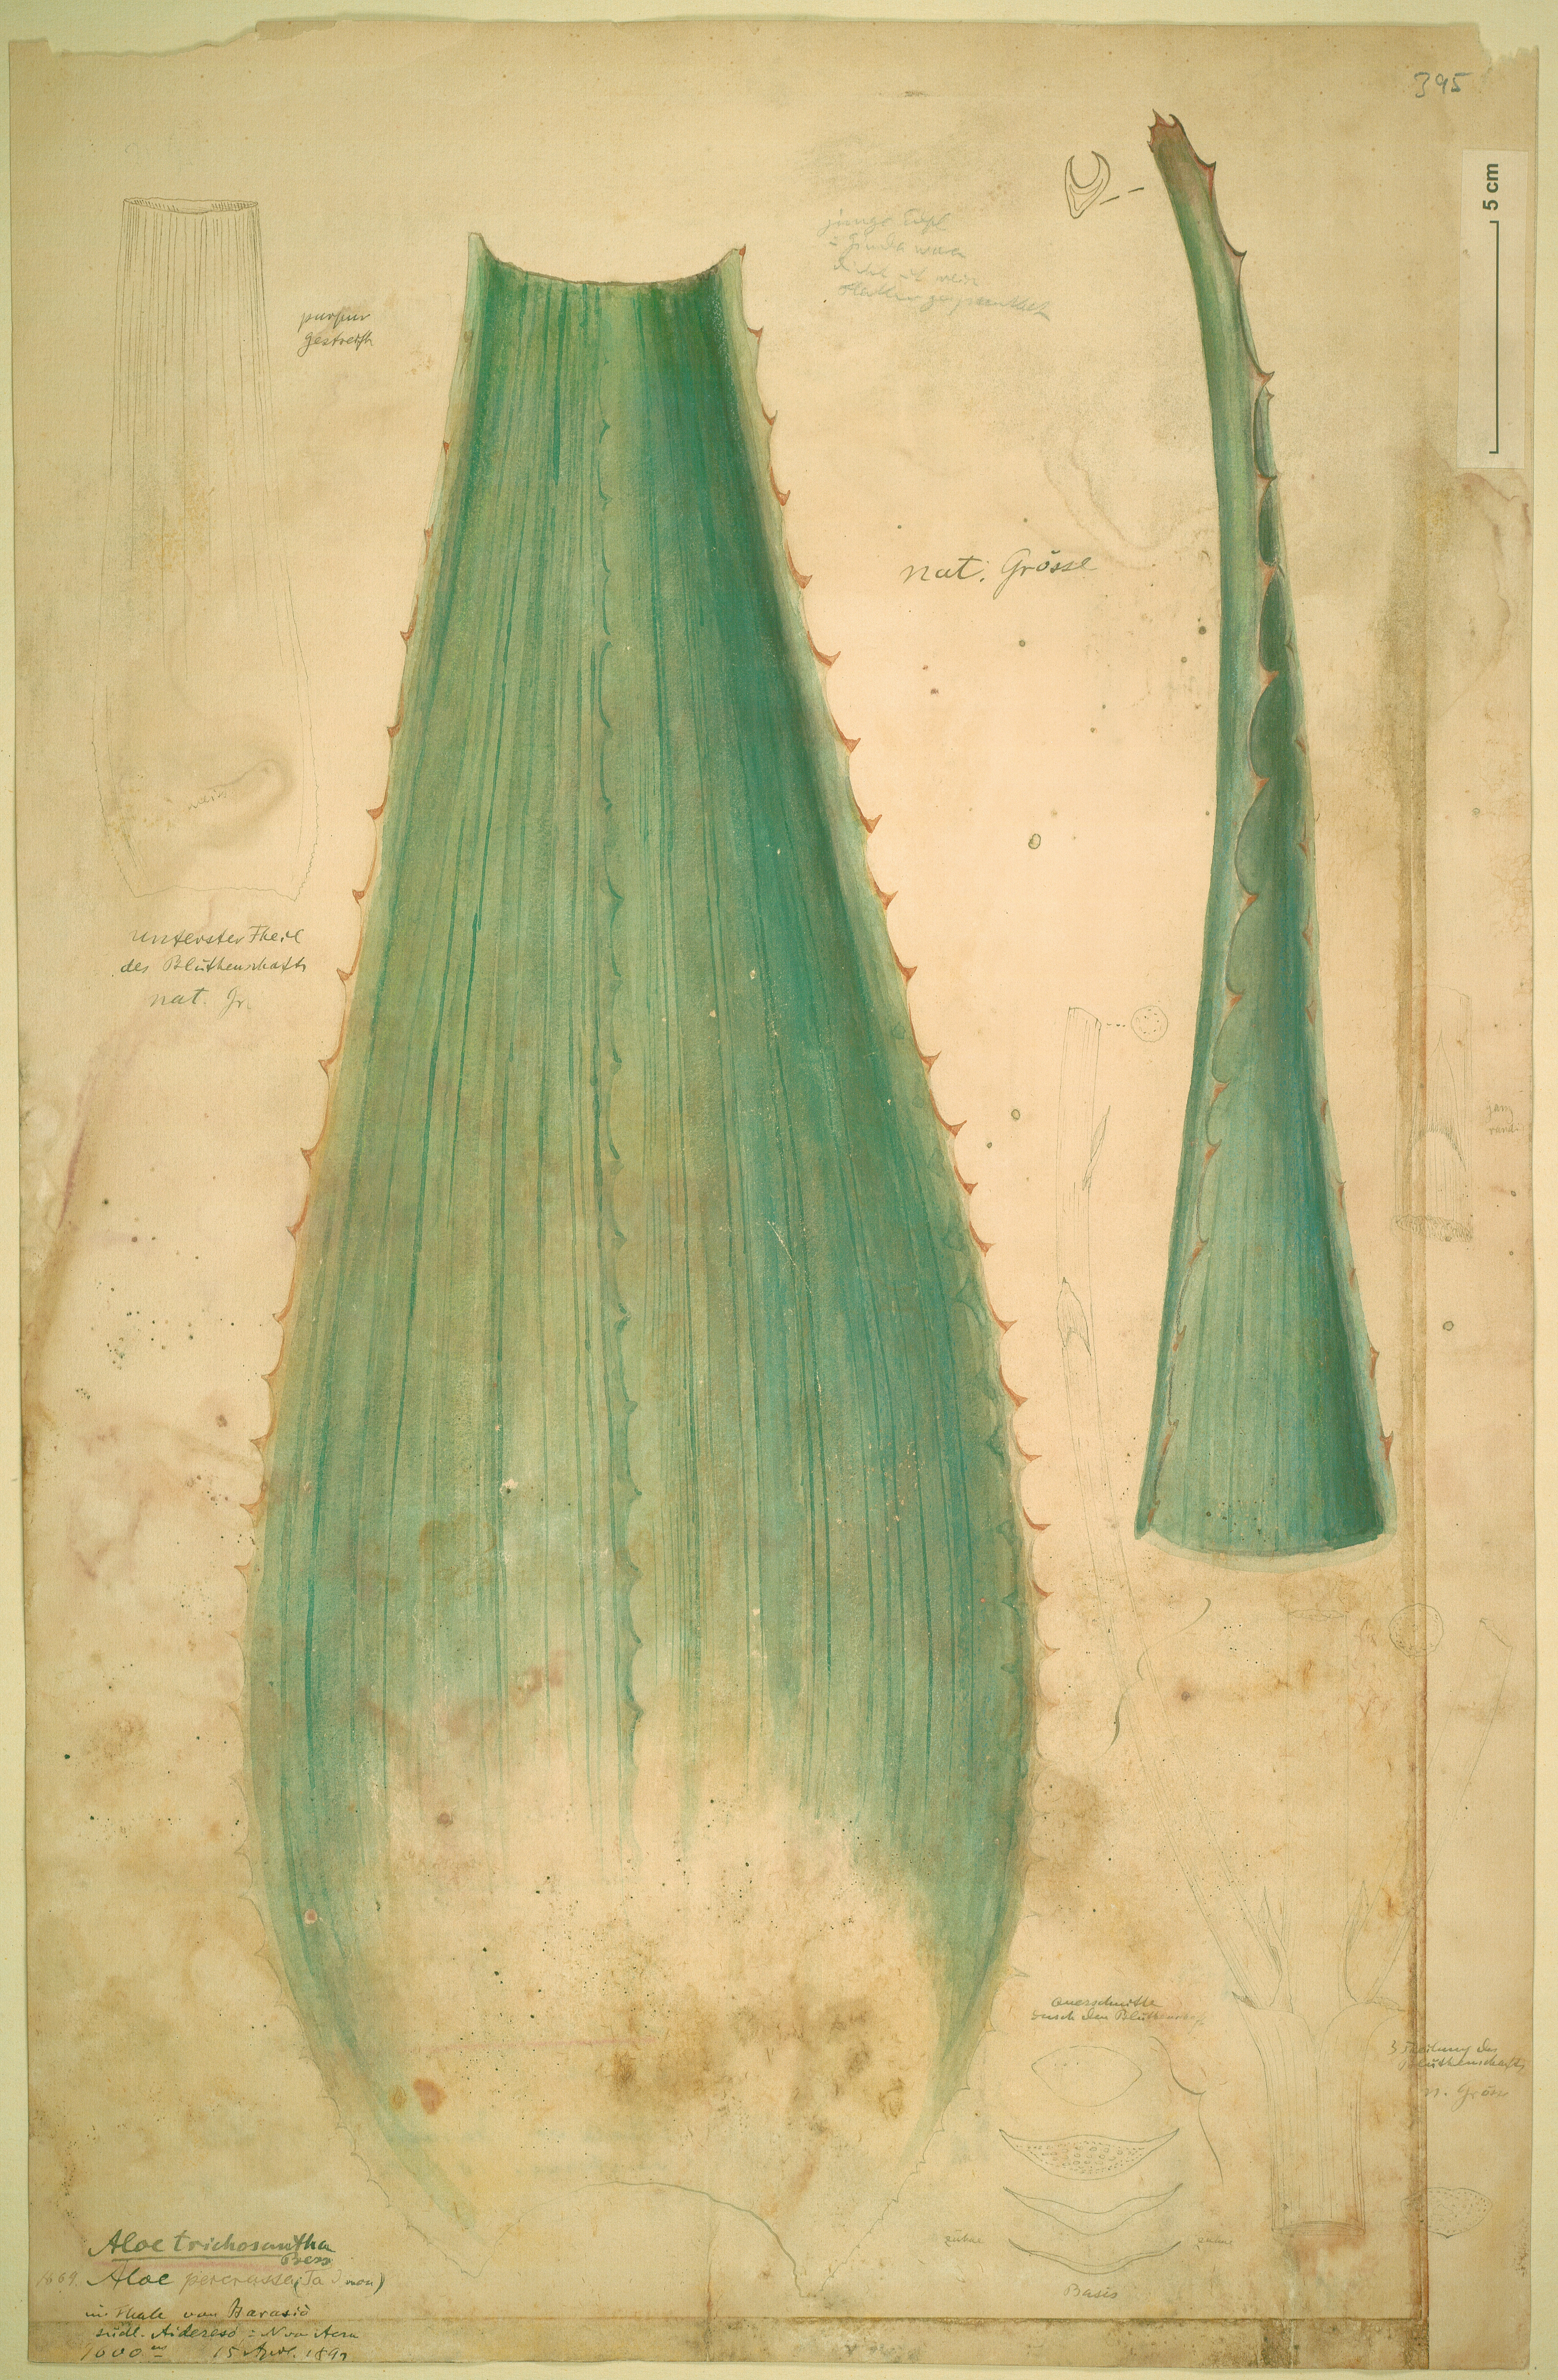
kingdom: Plantae
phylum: Tracheophyta
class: Liliopsida
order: Asparagales
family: Asphodelaceae
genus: Aloe
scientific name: Aloe trichosantha
